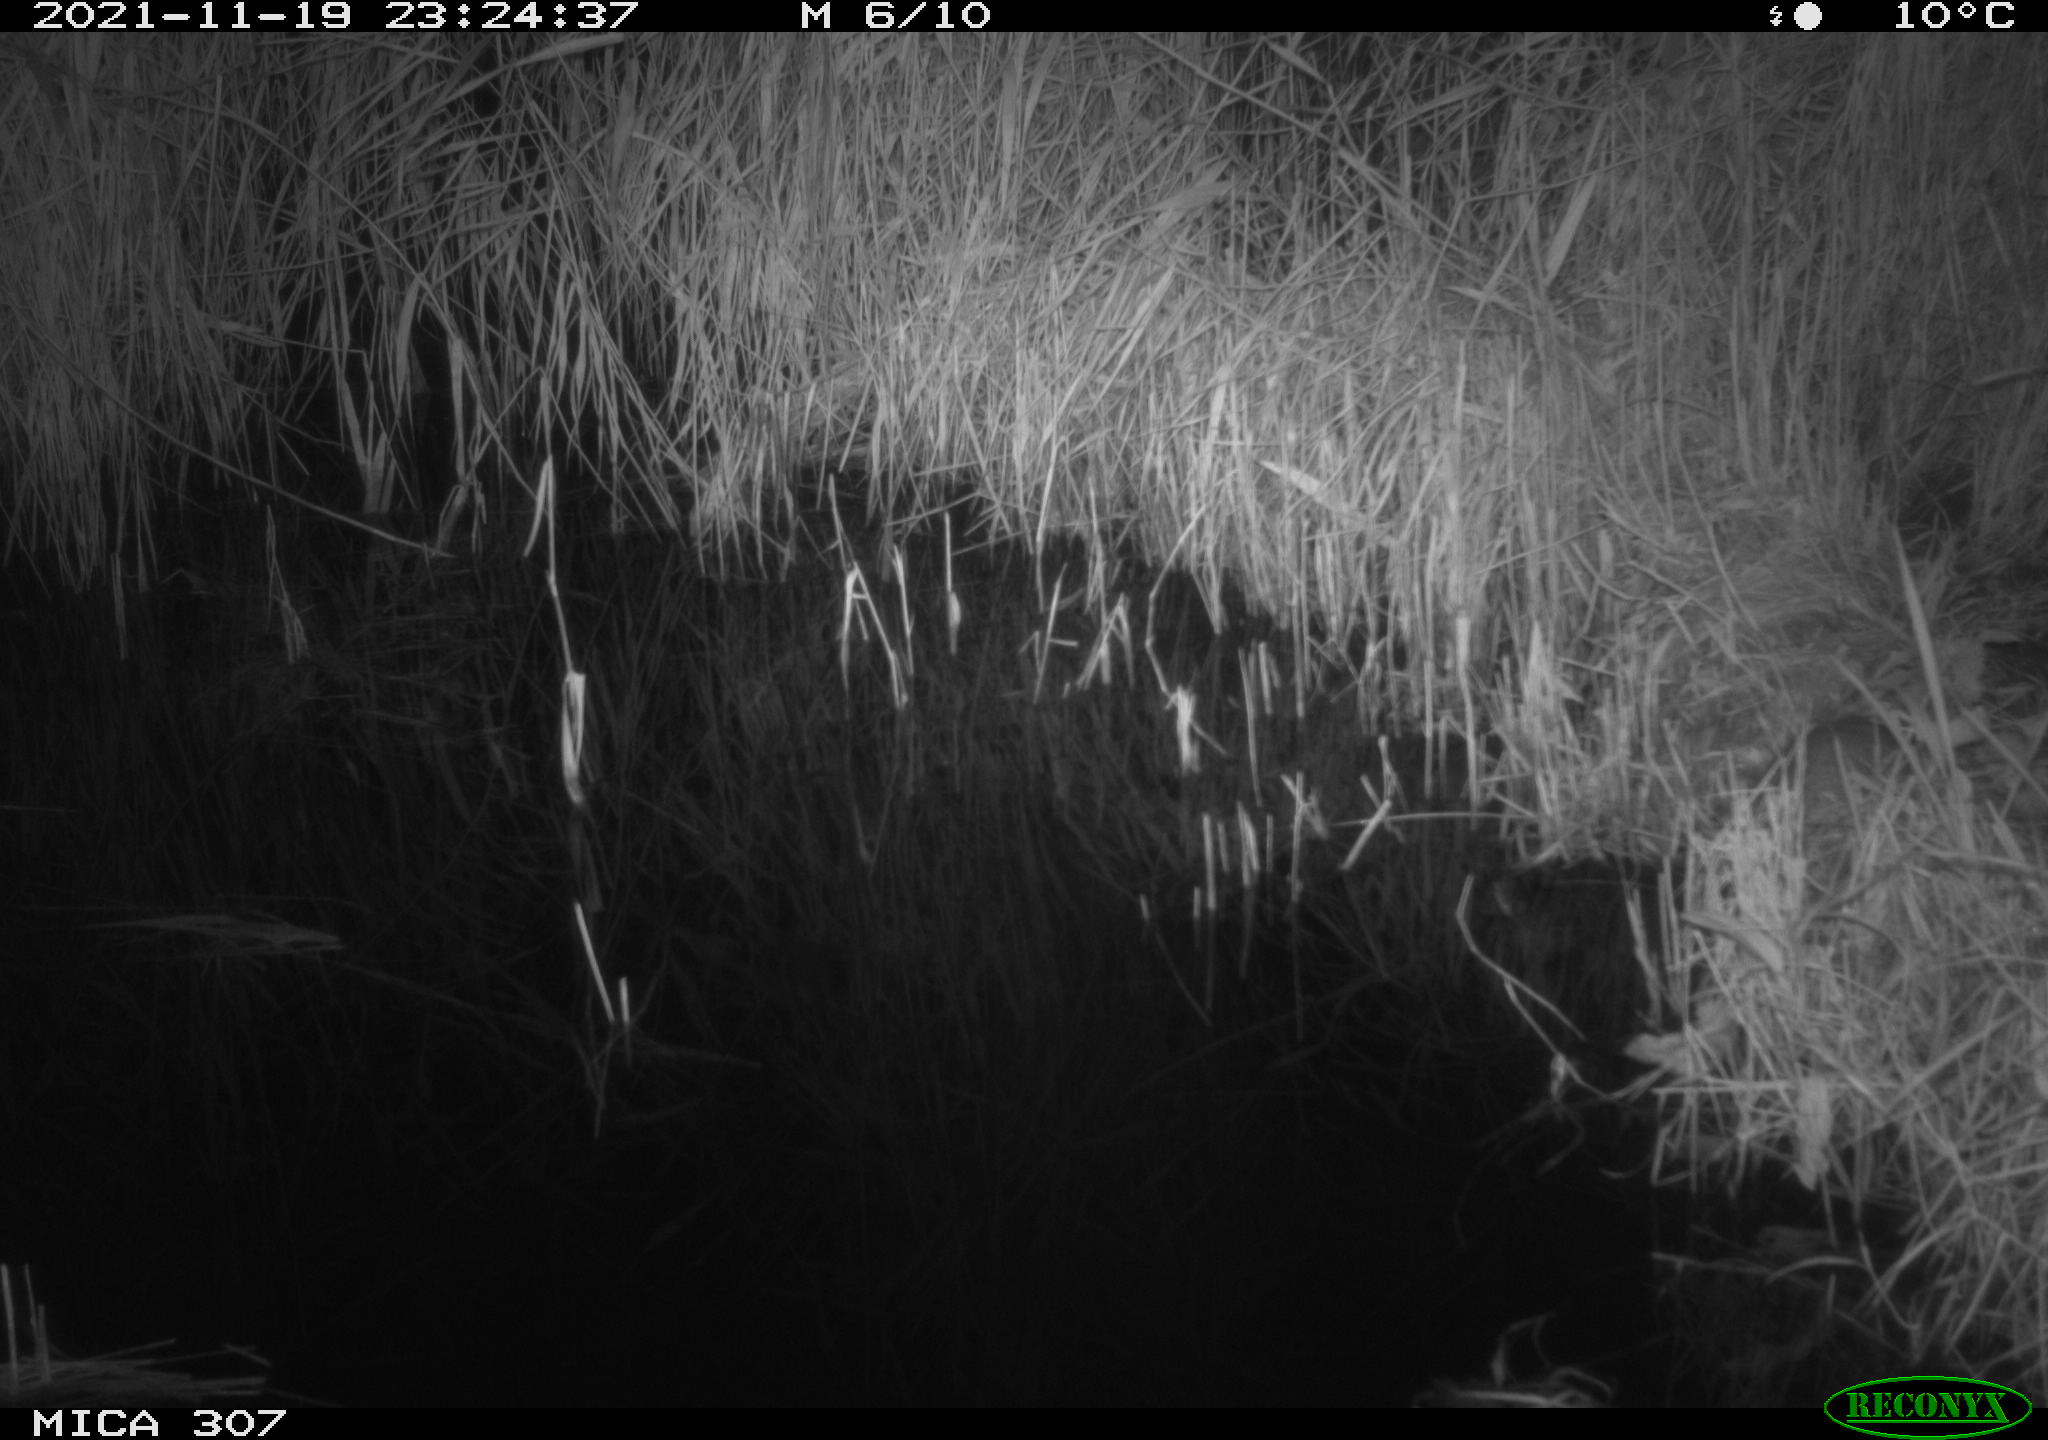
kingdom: Animalia
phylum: Chordata
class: Mammalia
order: Rodentia
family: Muridae
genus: Rattus
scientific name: Rattus norvegicus
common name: Brown rat
